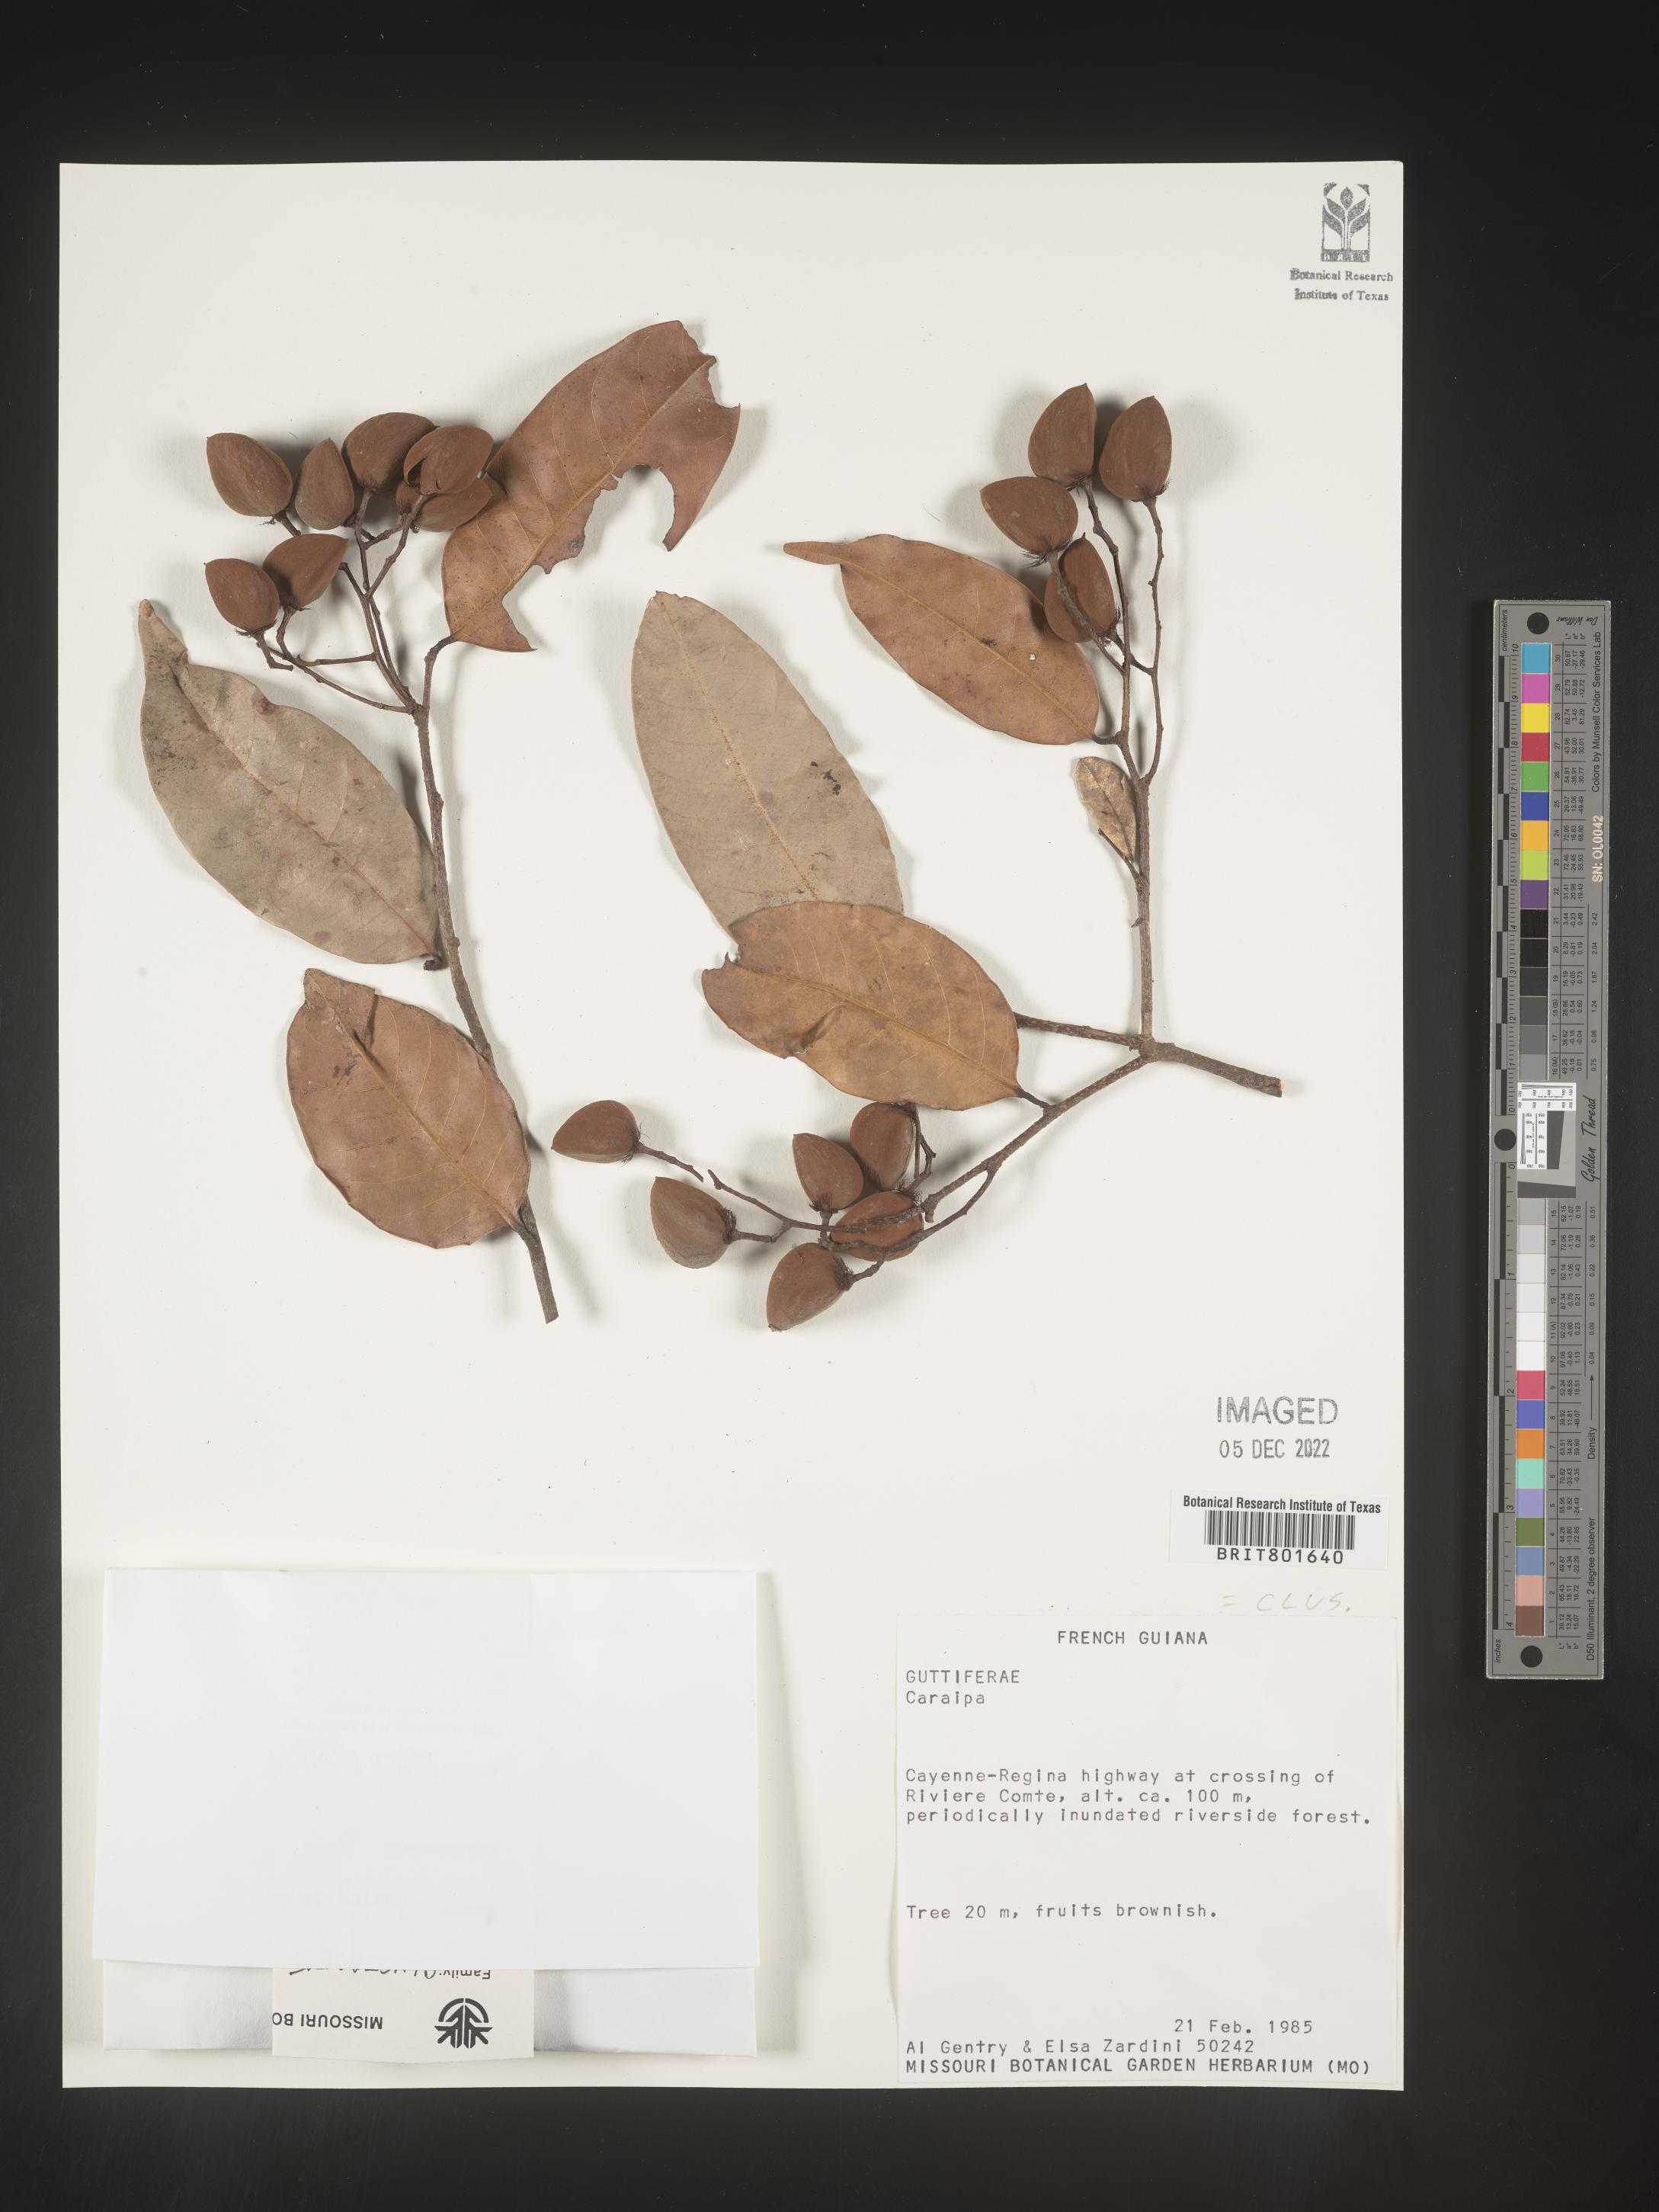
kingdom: Plantae
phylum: Tracheophyta
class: Magnoliopsida
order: Malpighiales
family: Calophyllaceae
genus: Caraipa
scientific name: Caraipa
